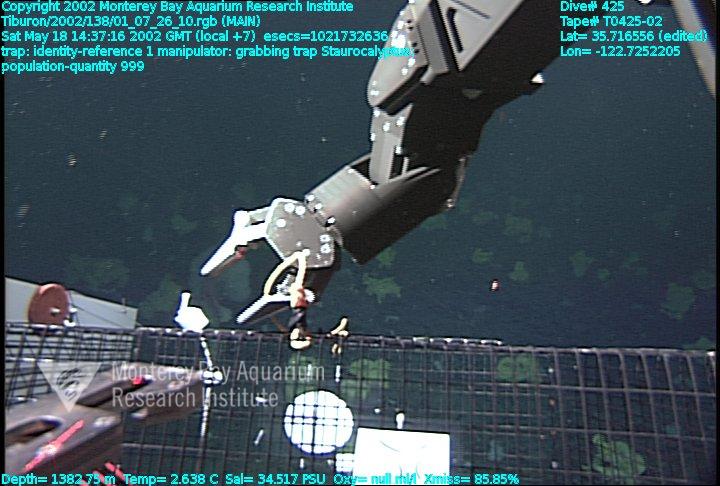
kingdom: Animalia
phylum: Porifera
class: Hexactinellida
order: Lyssacinosida
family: Rossellidae
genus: Staurocalyptus
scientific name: Staurocalyptus
